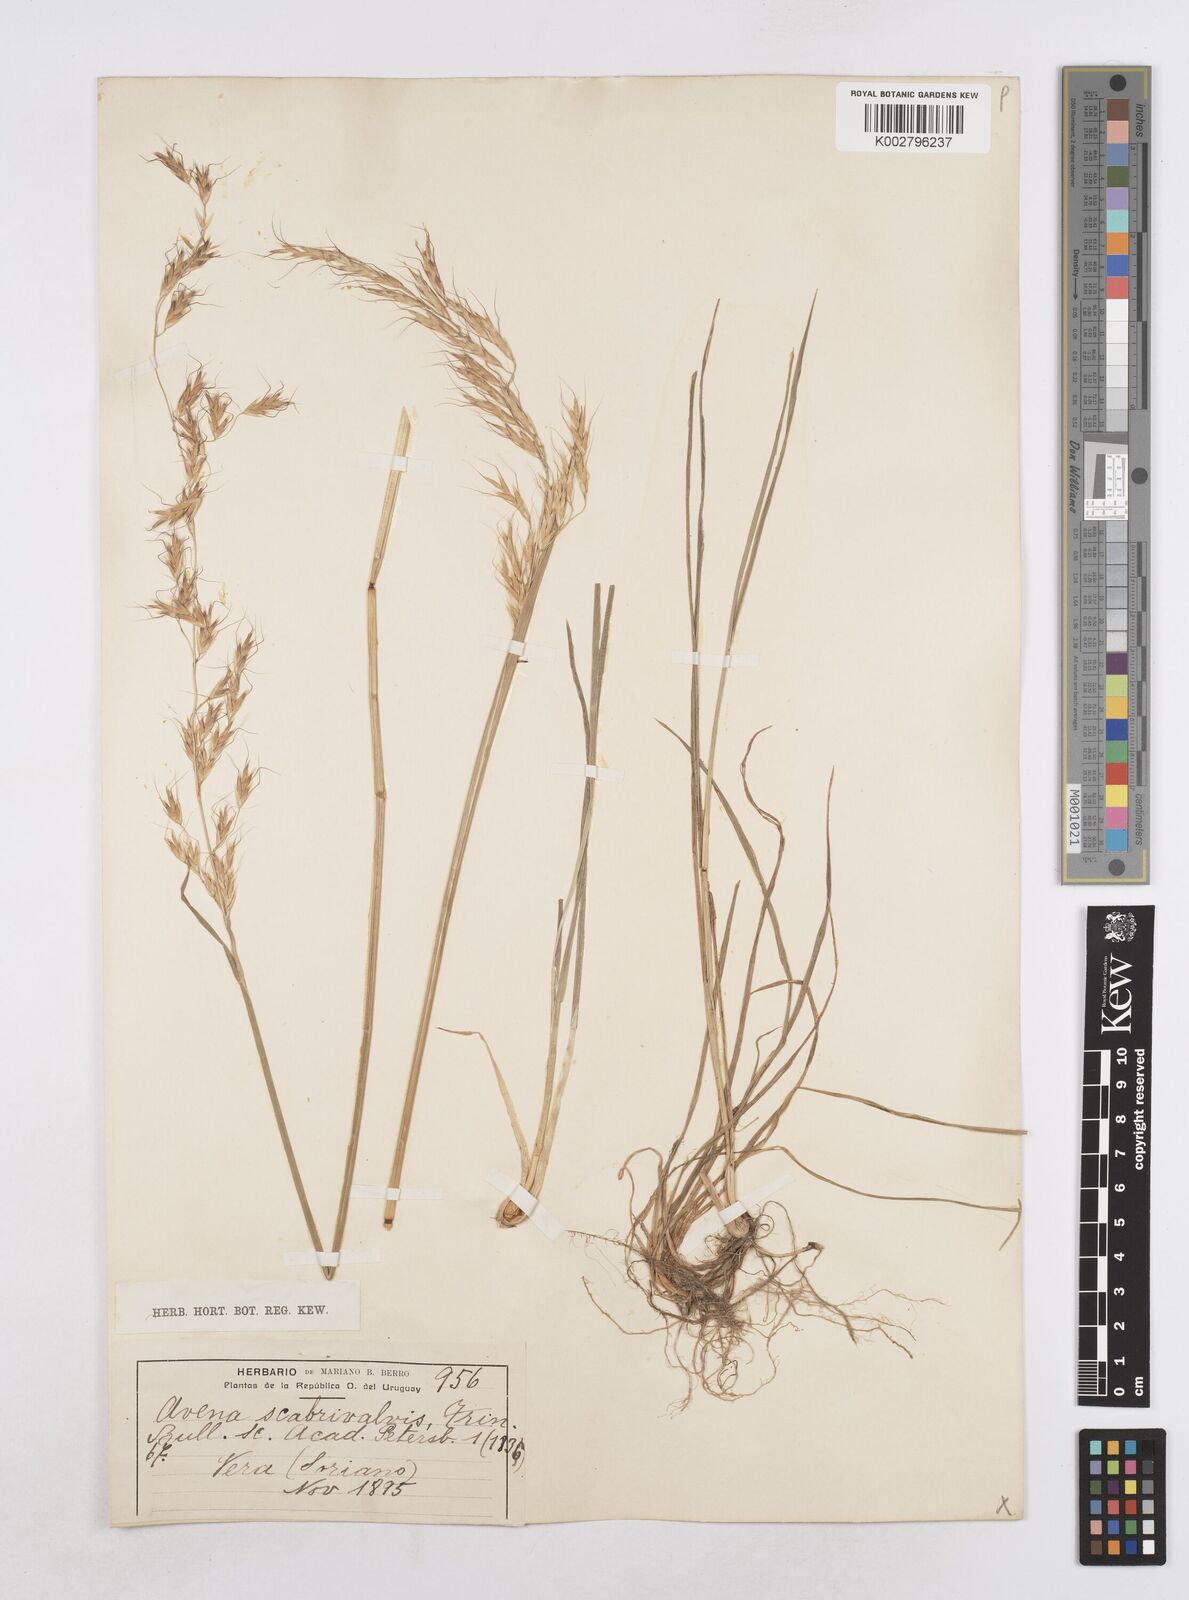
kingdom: Plantae
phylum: Tracheophyta
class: Liliopsida
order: Poales
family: Poaceae
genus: Helictotrichon
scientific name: Helictotrichon
